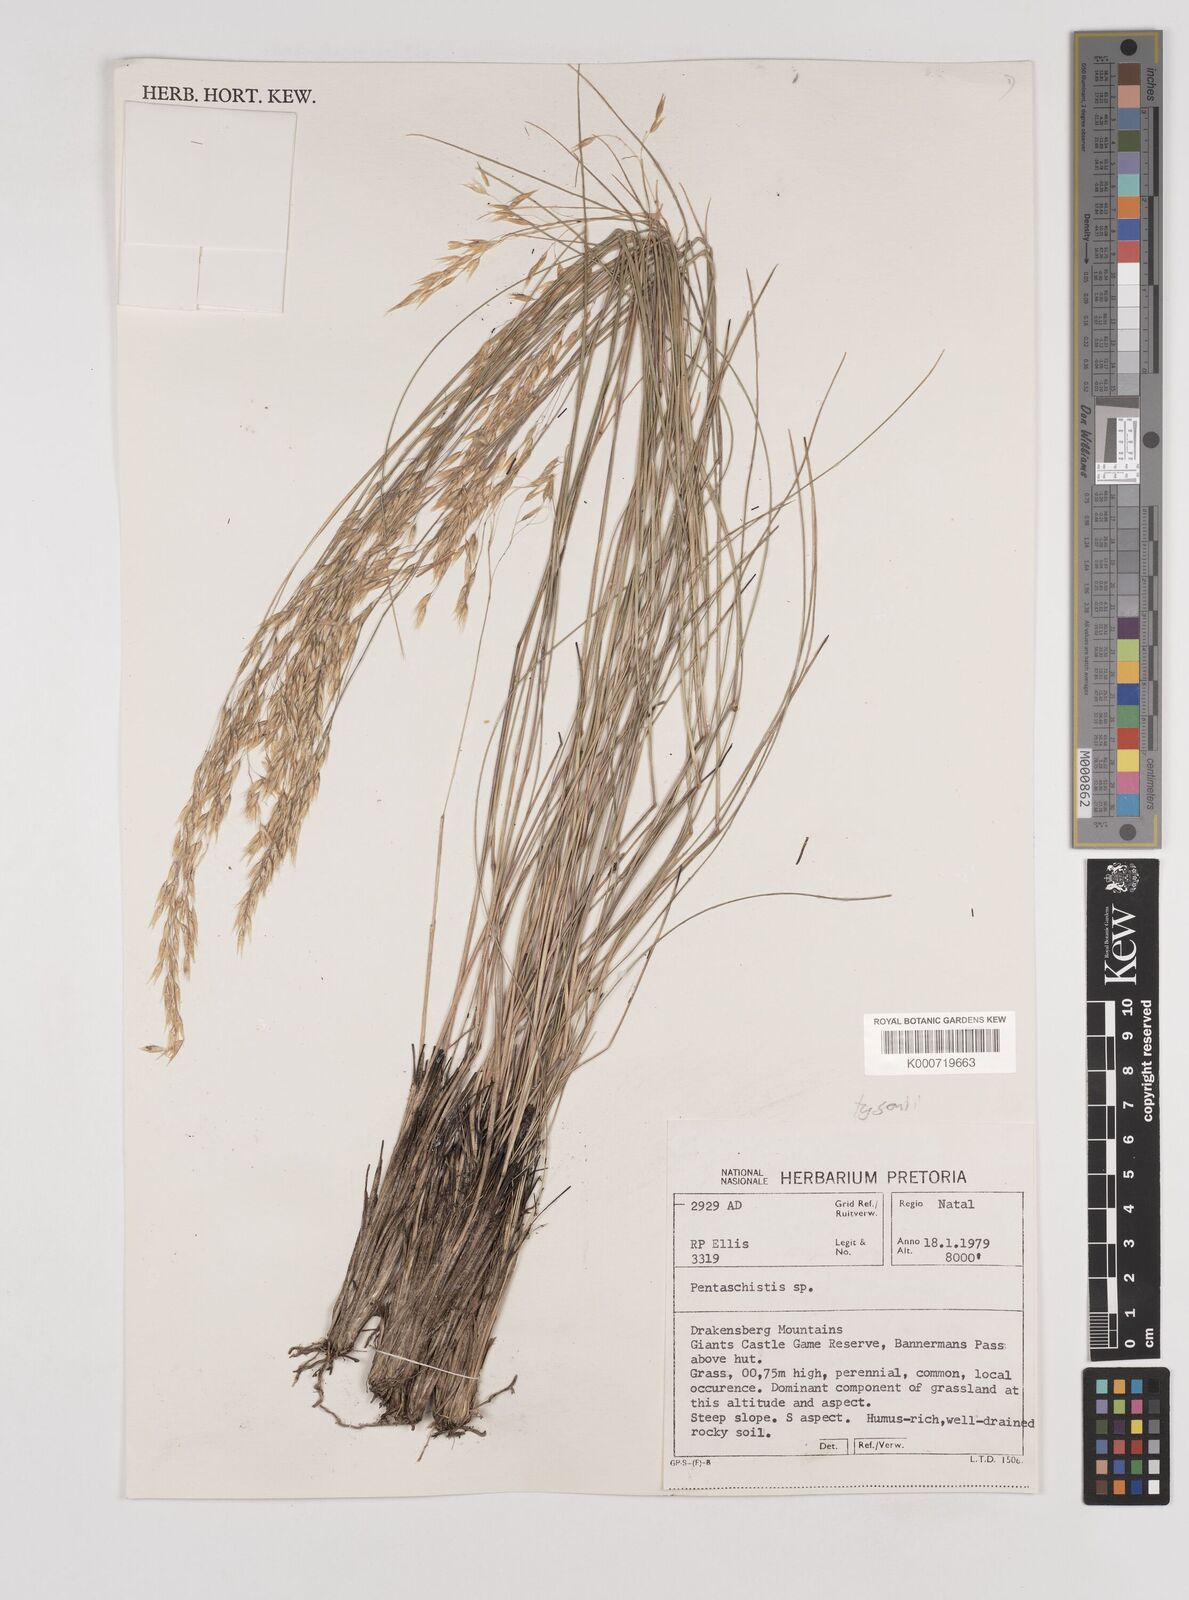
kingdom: Plantae
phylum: Tracheophyta
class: Liliopsida
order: Poales
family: Poaceae
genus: Pentameris
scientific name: Pentameris tysonii
